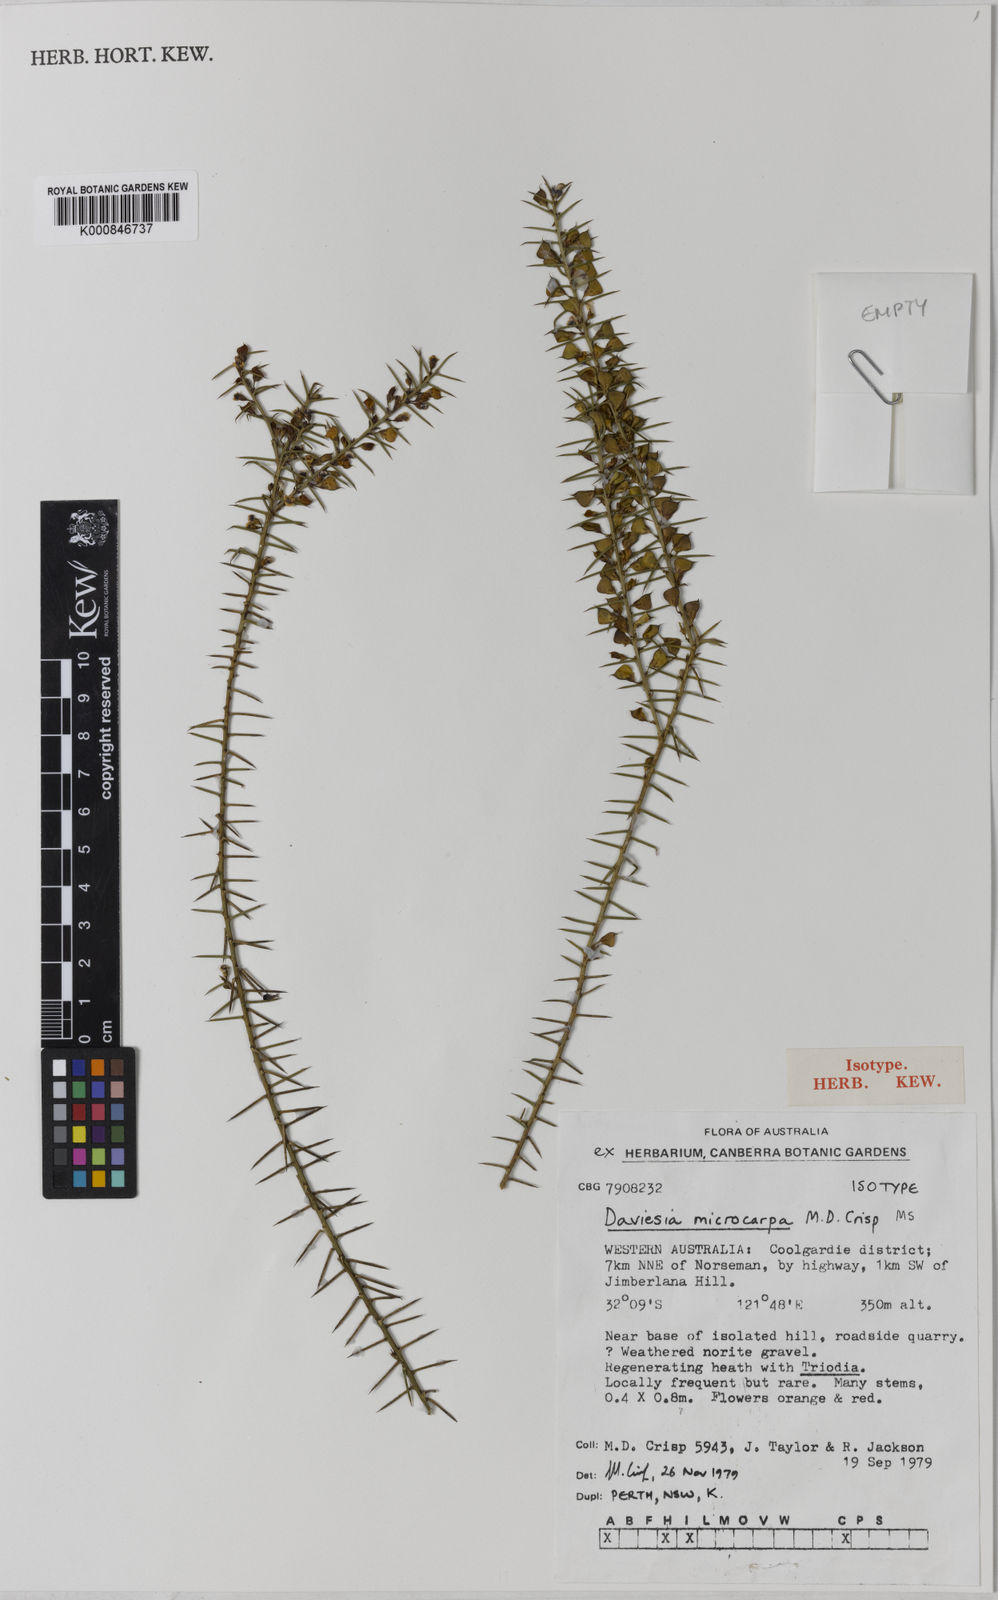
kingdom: Plantae
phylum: Tracheophyta
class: Magnoliopsida
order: Fabales
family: Fabaceae
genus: Daviesia
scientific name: Daviesia microcarpa
